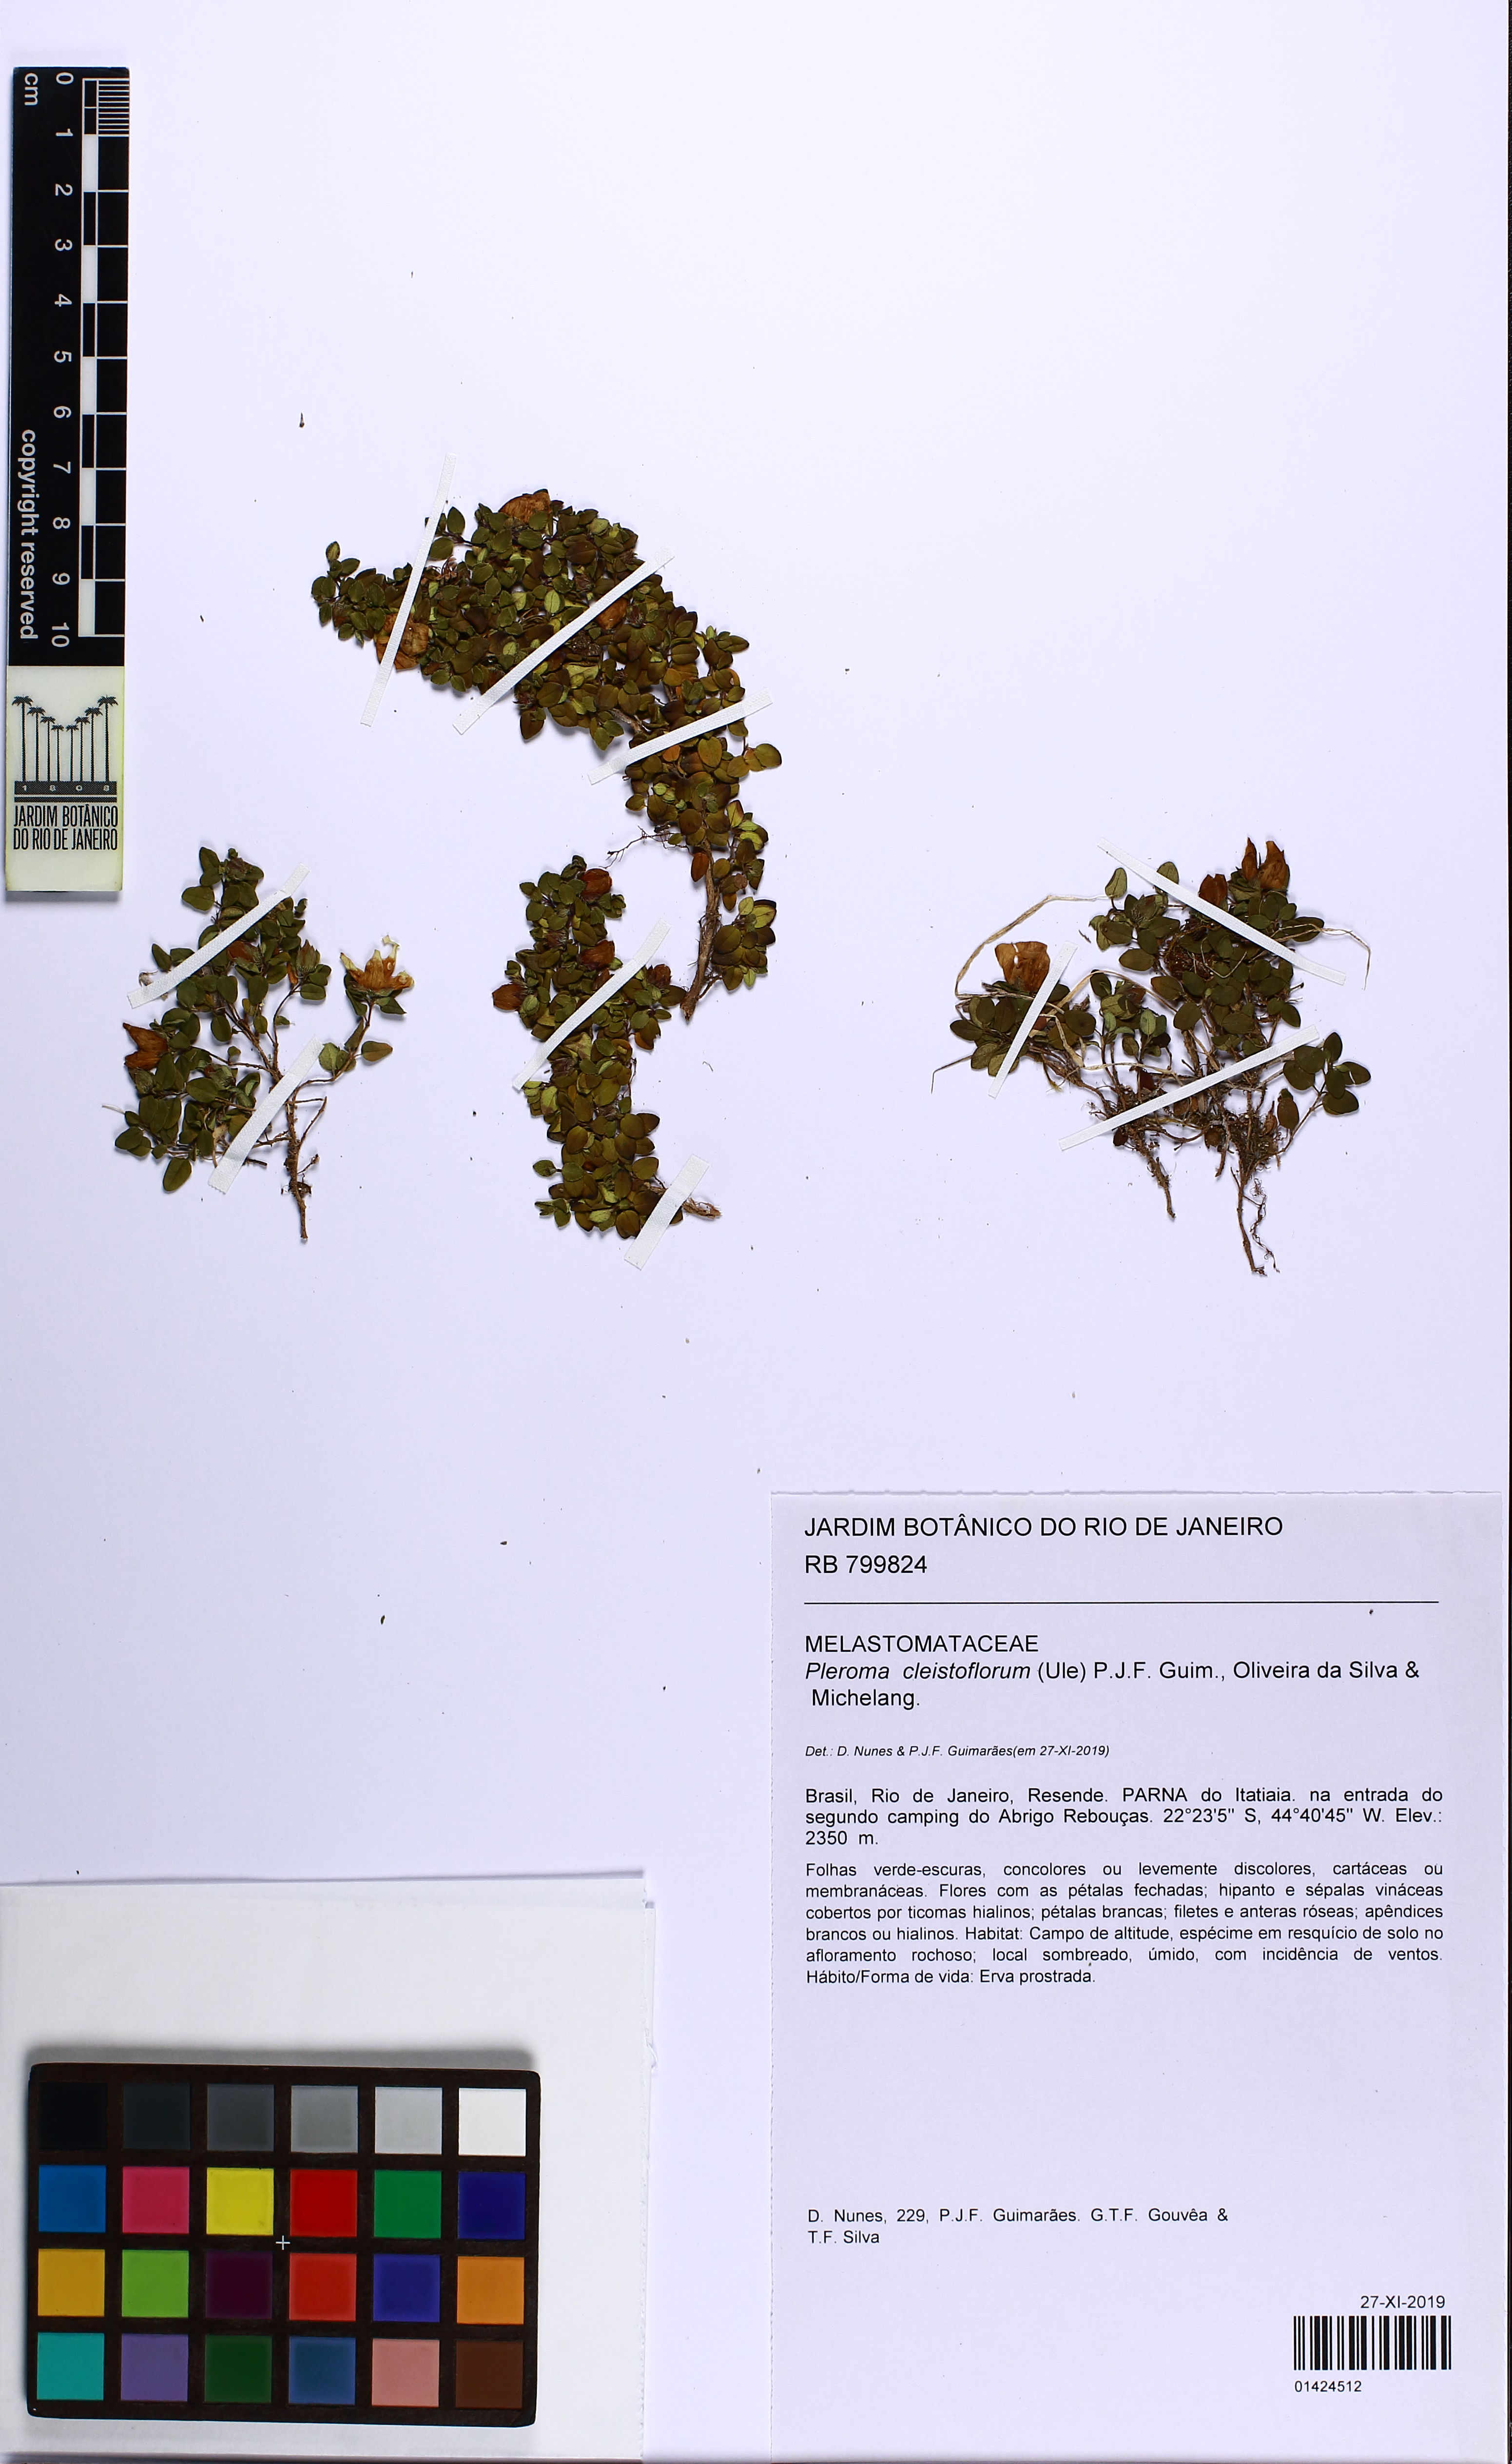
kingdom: Plantae
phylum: Tracheophyta
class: Magnoliopsida
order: Myrtales
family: Melastomataceae
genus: Pleroma
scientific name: Pleroma cleistoflora
